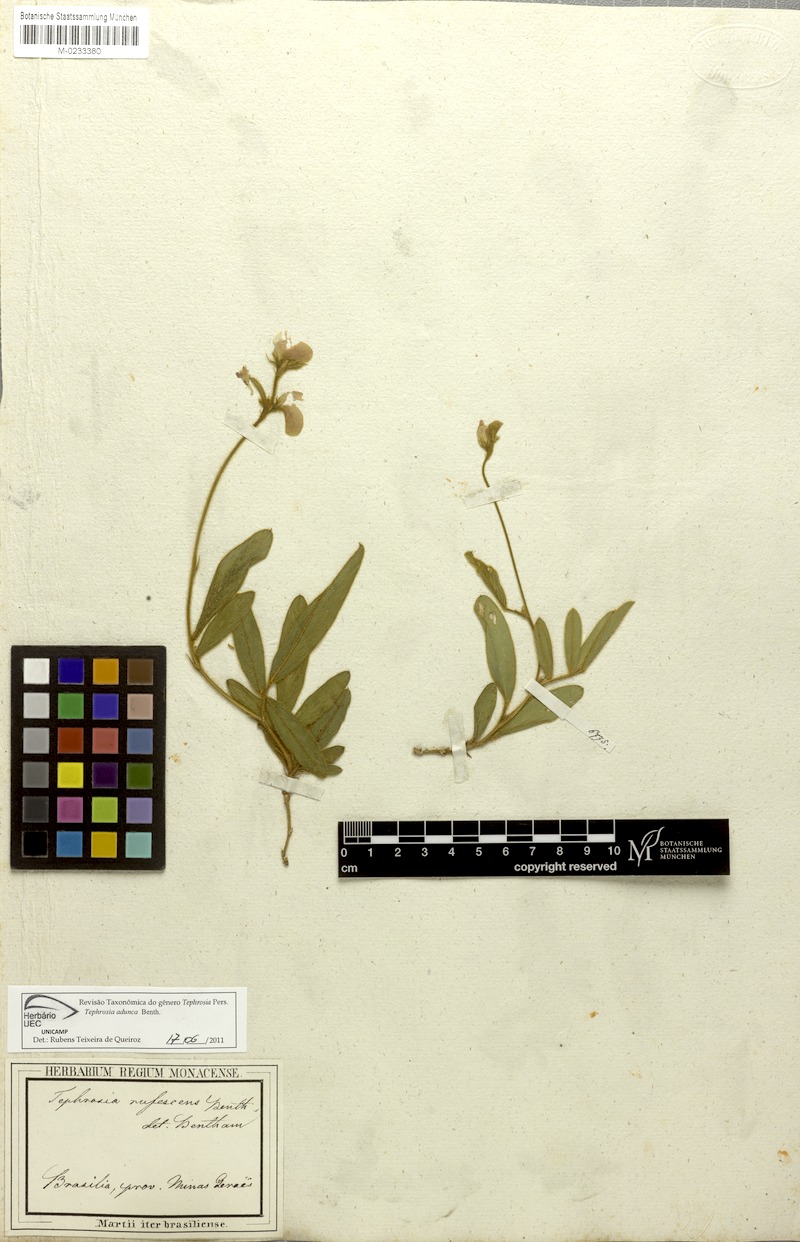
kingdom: Plantae
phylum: Tracheophyta
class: Magnoliopsida
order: Fabales
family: Fabaceae
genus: Tephrosia
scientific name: Tephrosia adunca
